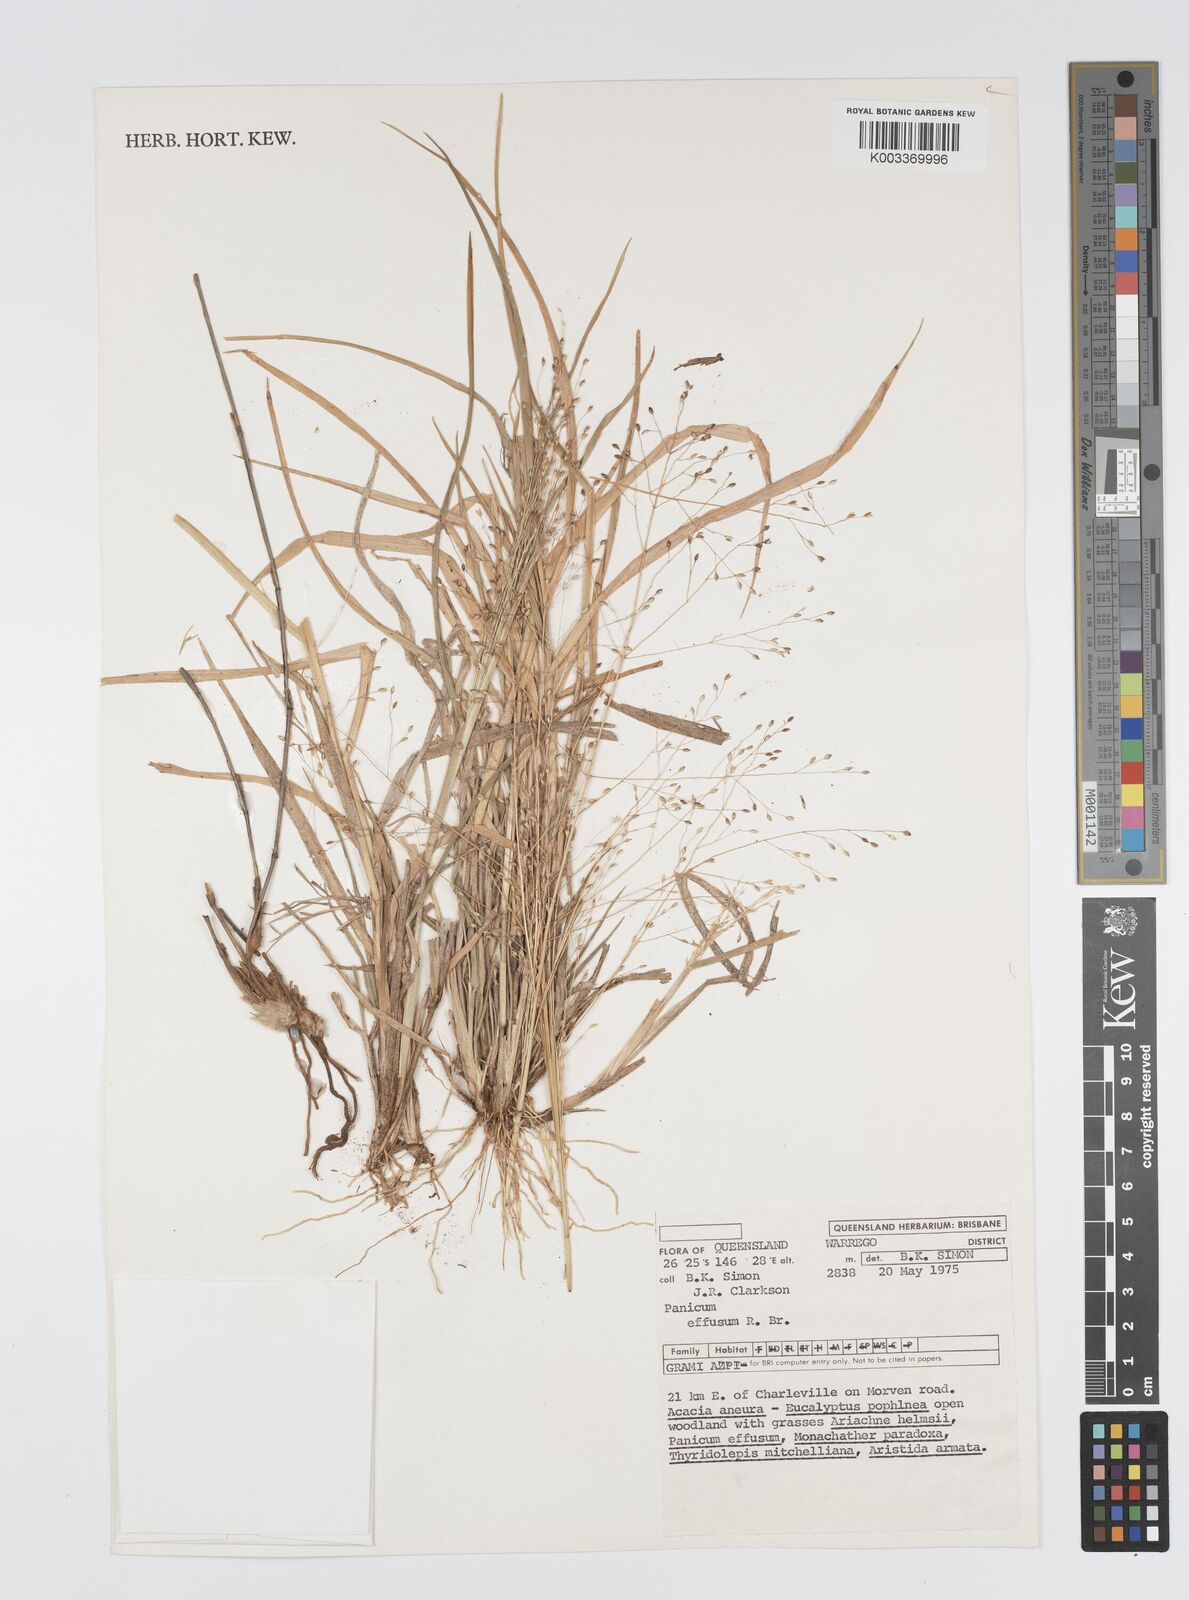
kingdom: Plantae
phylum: Tracheophyta
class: Liliopsida
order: Poales
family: Poaceae
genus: Panicum
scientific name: Panicum effusum
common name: Hairy panic grass
